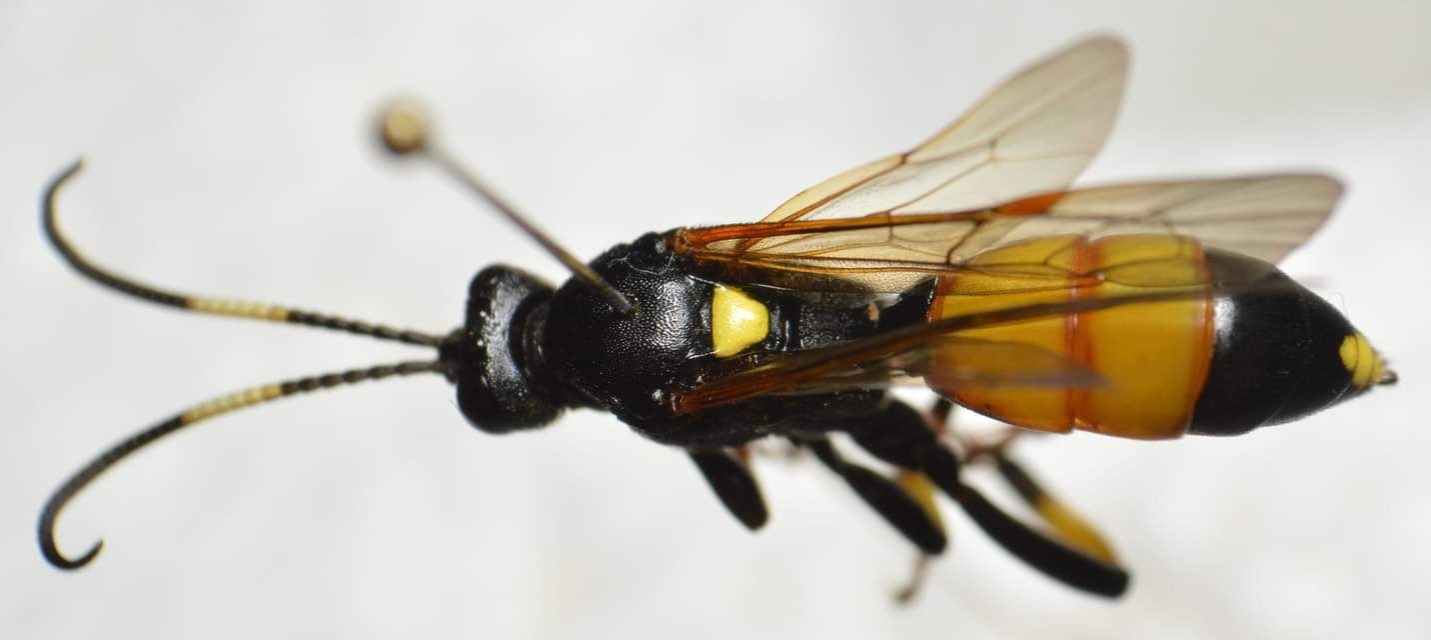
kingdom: Animalia
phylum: Arthropoda
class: Insecta
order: Hymenoptera
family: Ichneumonidae
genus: Ichneumon
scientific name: Ichneumon stramentor
